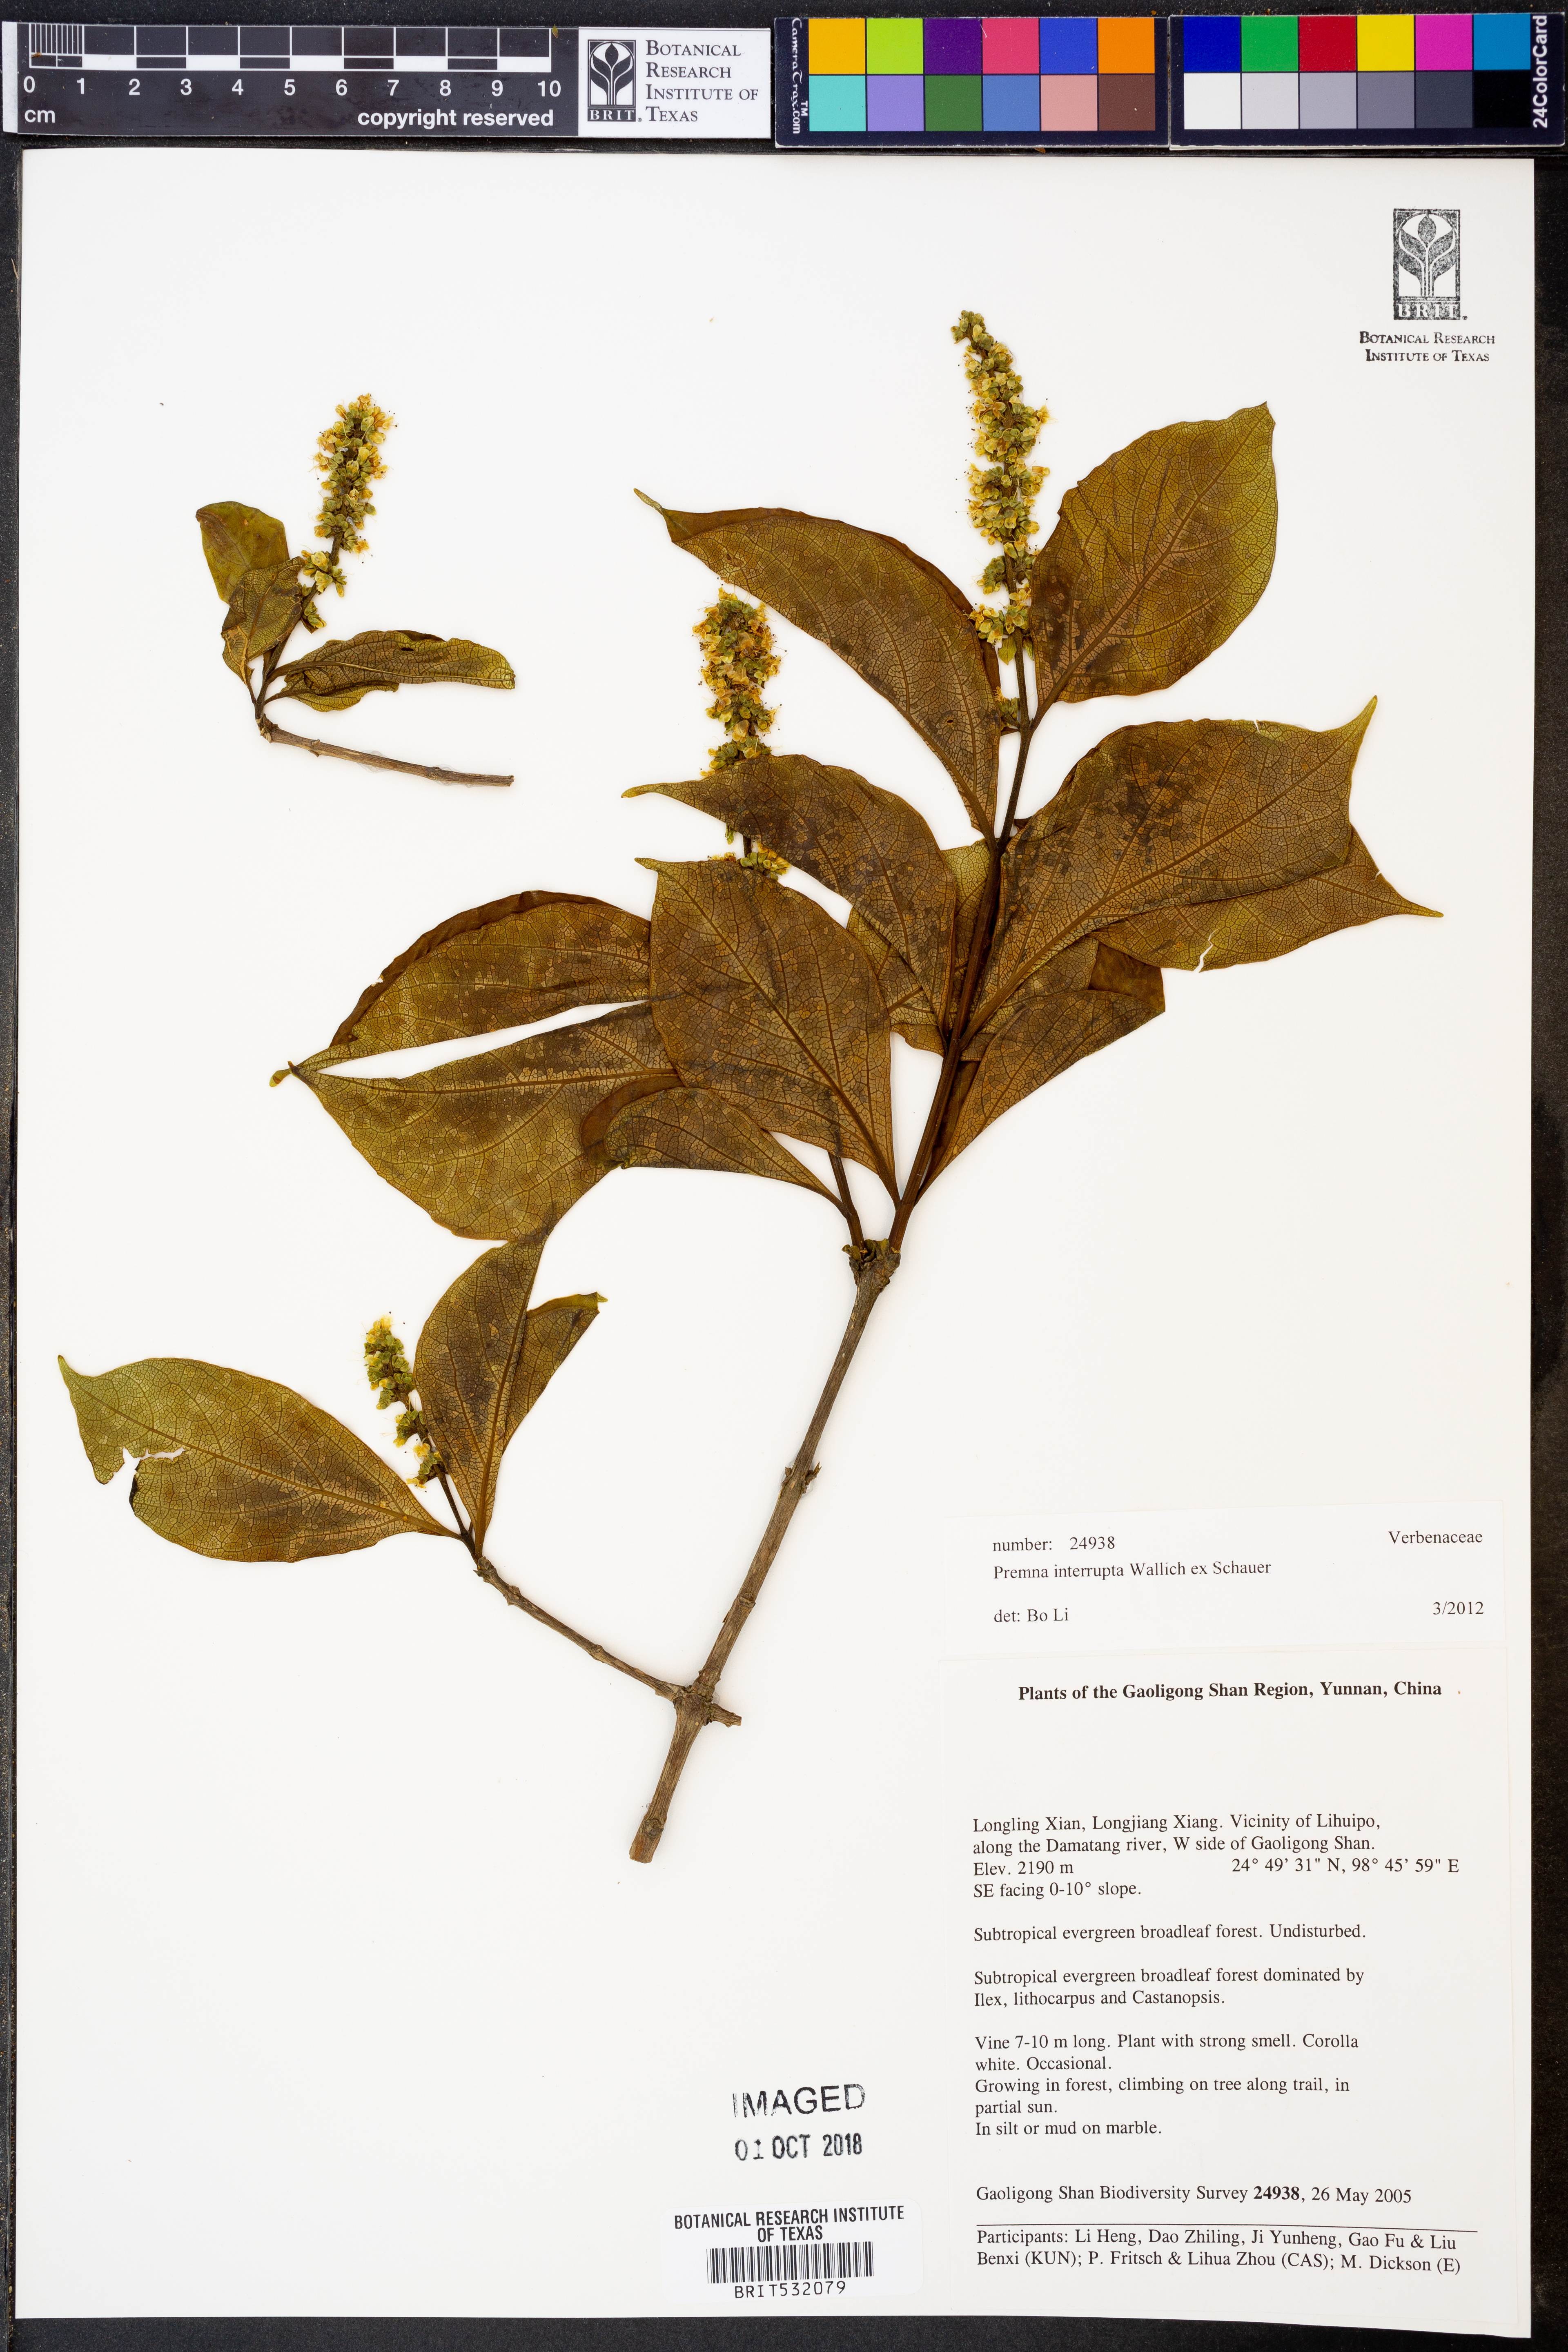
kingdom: Plantae
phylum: Tracheophyta
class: Magnoliopsida
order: Lamiales
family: Lamiaceae
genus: Premna
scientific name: Premna interrupta
